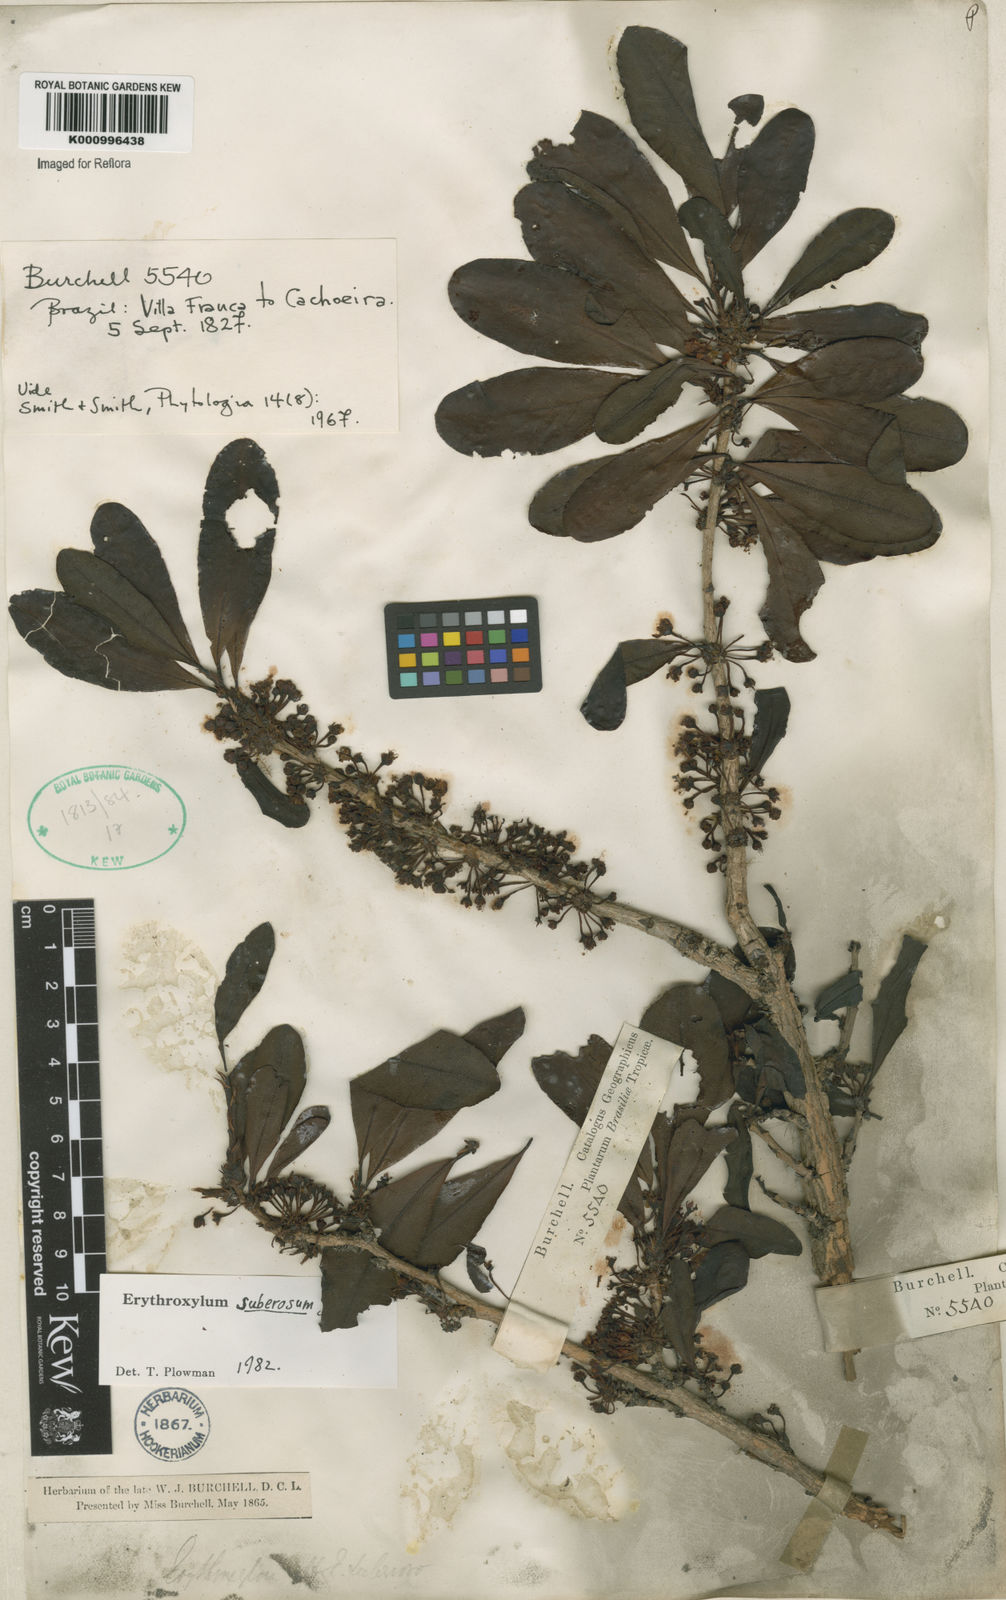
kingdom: Plantae
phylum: Tracheophyta
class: Magnoliopsida
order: Malpighiales
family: Erythroxylaceae
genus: Erythroxylum
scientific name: Erythroxylum suberosum
